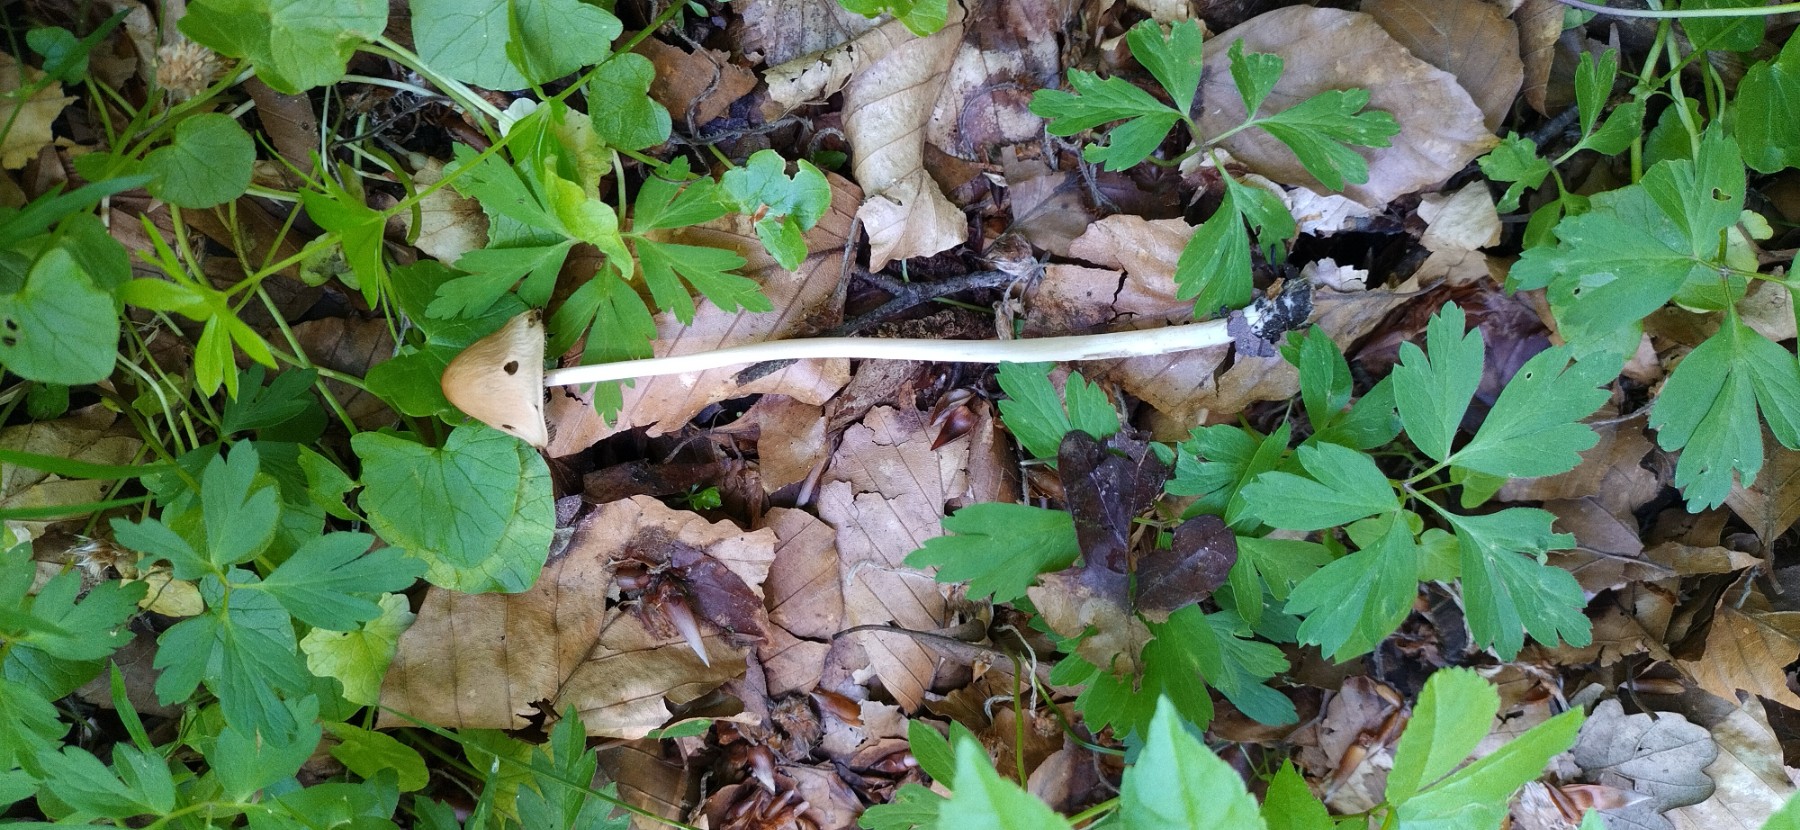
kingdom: Fungi
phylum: Basidiomycota
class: Agaricomycetes
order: Agaricales
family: Psathyrellaceae
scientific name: Psathyrellaceae
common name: mørkhatfamilien
